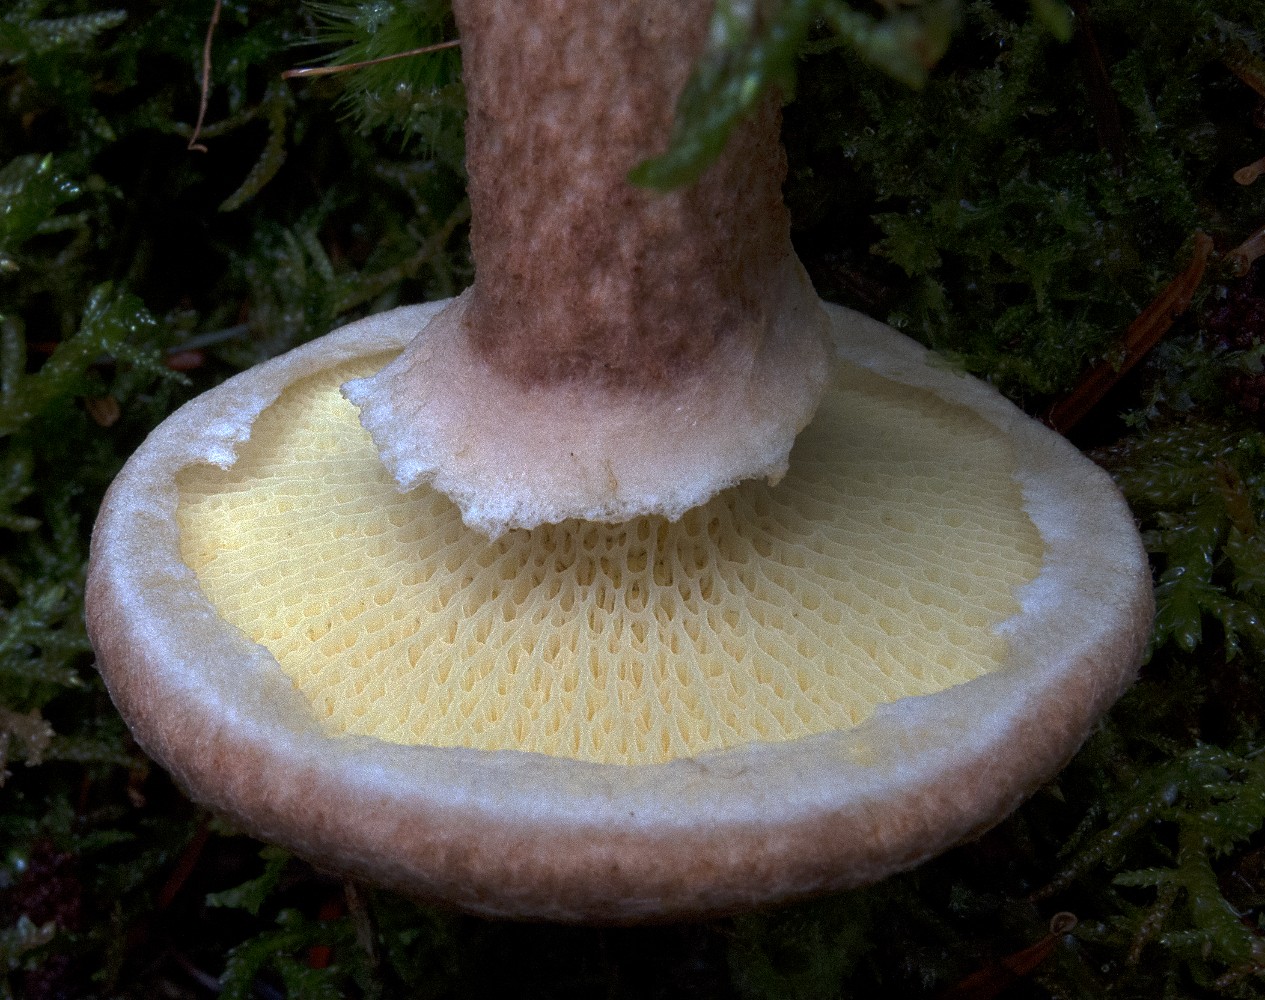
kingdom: Fungi
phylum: Basidiomycota
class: Agaricomycetes
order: Boletales
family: Suillaceae
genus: Suillus
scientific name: Suillus cavipes
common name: hulstokket slimrørhat
